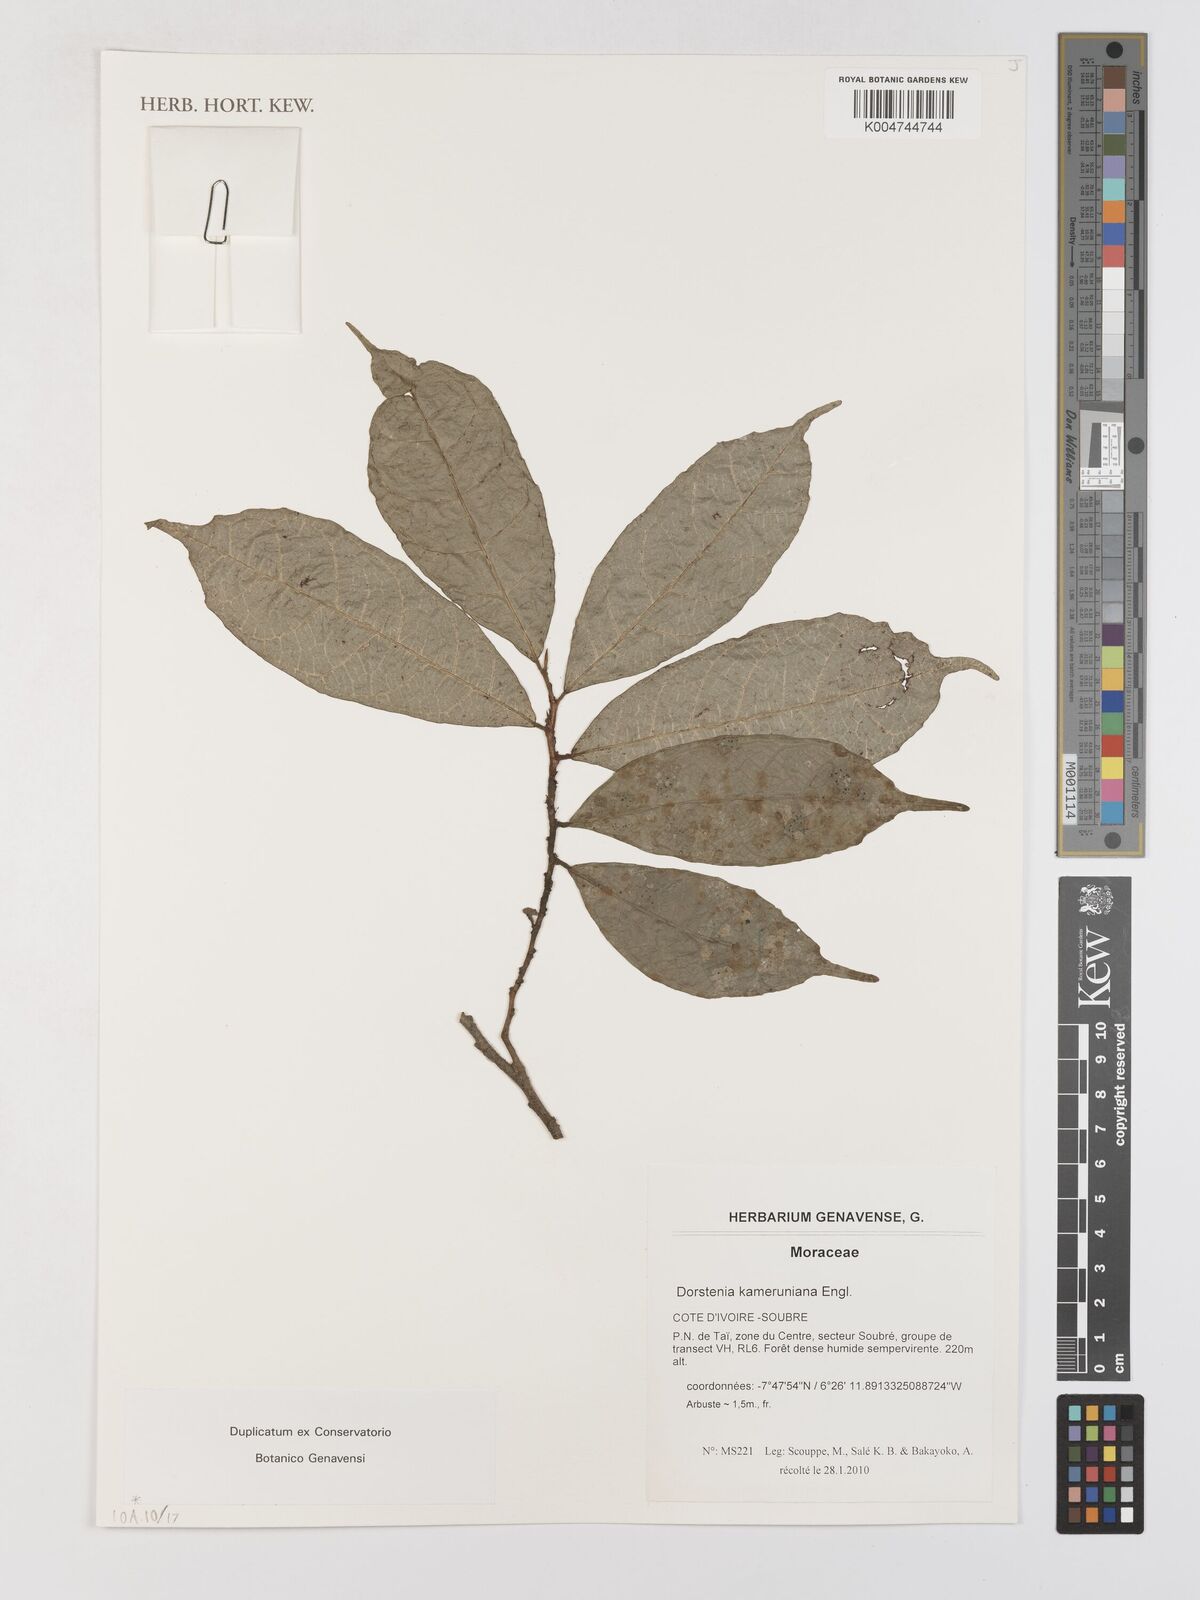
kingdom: Plantae
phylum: Tracheophyta
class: Magnoliopsida
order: Rosales
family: Moraceae
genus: Dorstenia
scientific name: Dorstenia kameruniana
